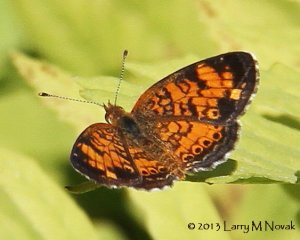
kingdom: Animalia
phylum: Arthropoda
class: Insecta
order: Lepidoptera
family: Nymphalidae
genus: Phyciodes
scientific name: Phyciodes tharos
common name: Pearl Crescent
